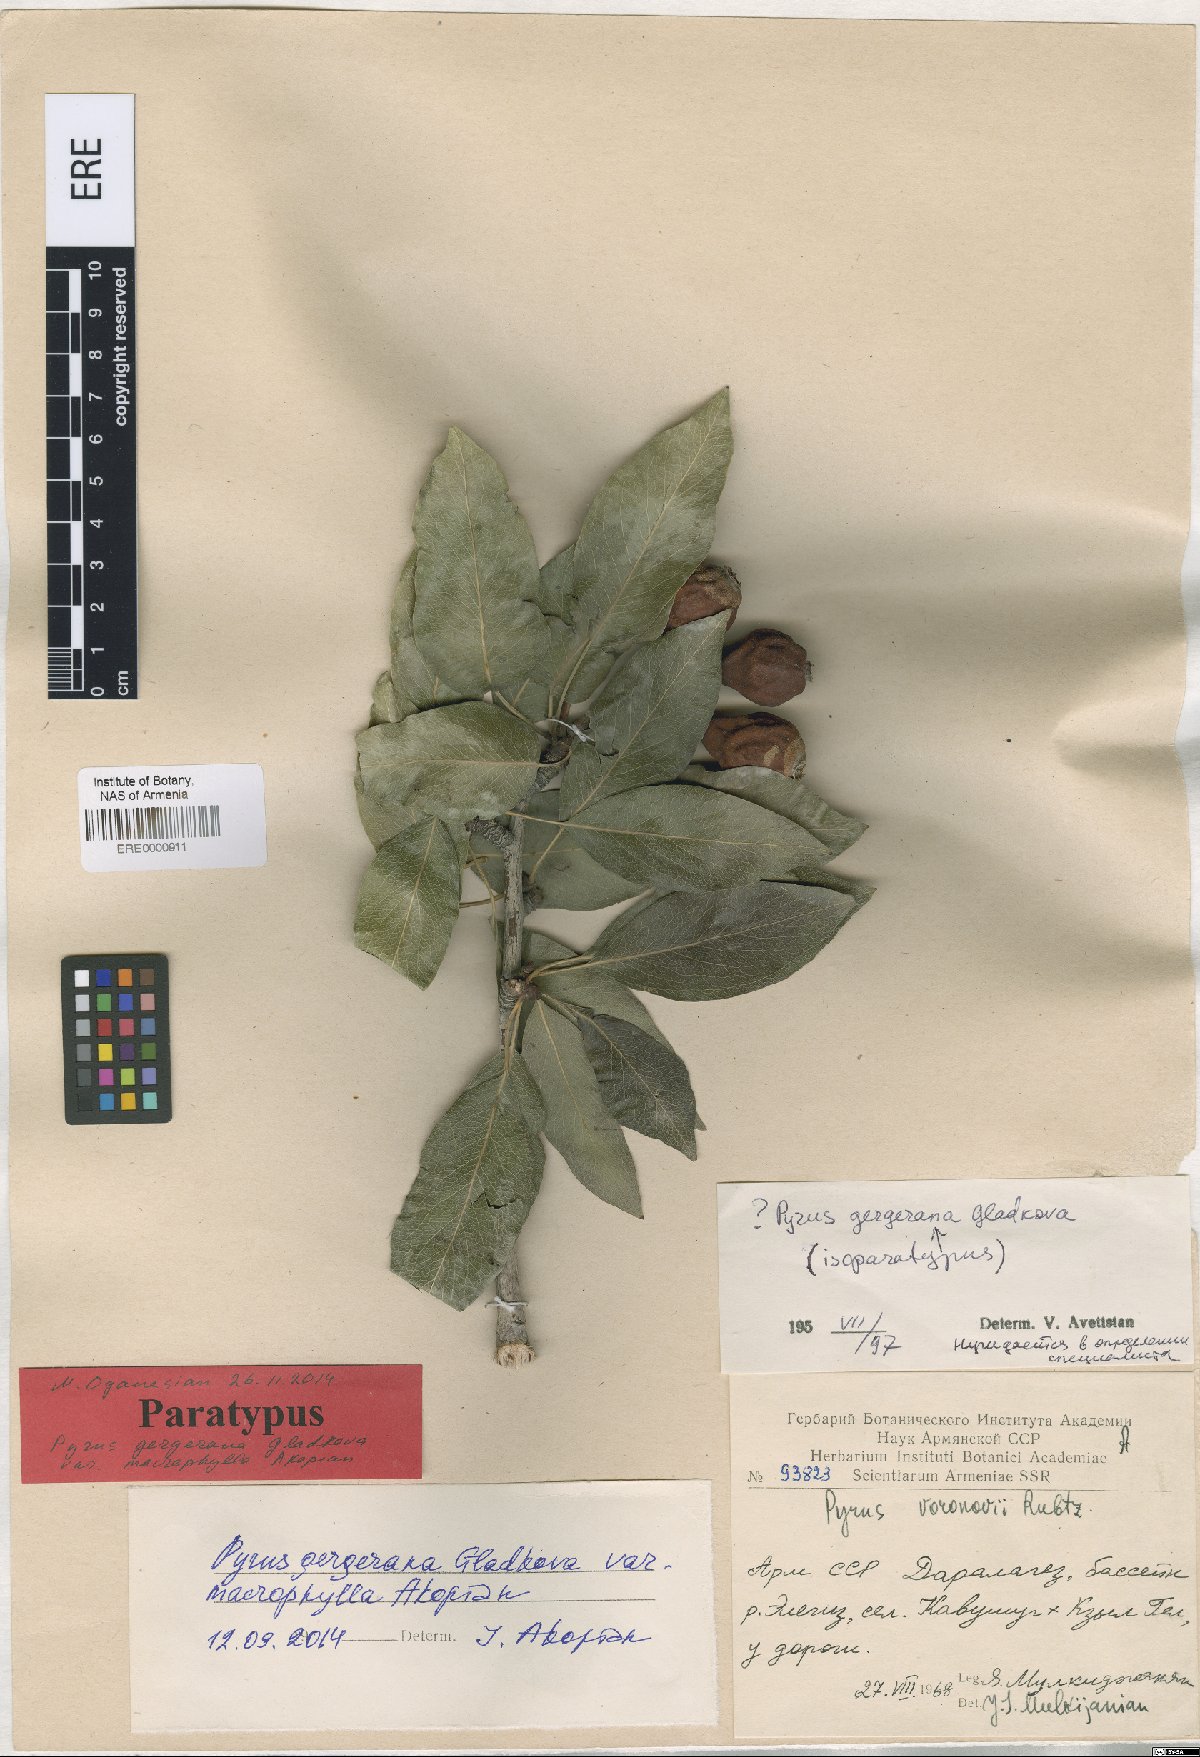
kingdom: Plantae
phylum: Tracheophyta
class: Magnoliopsida
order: Rosales
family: Rosaceae
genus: Pyrus
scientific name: Pyrus gergerana
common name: Gergeranian pear
